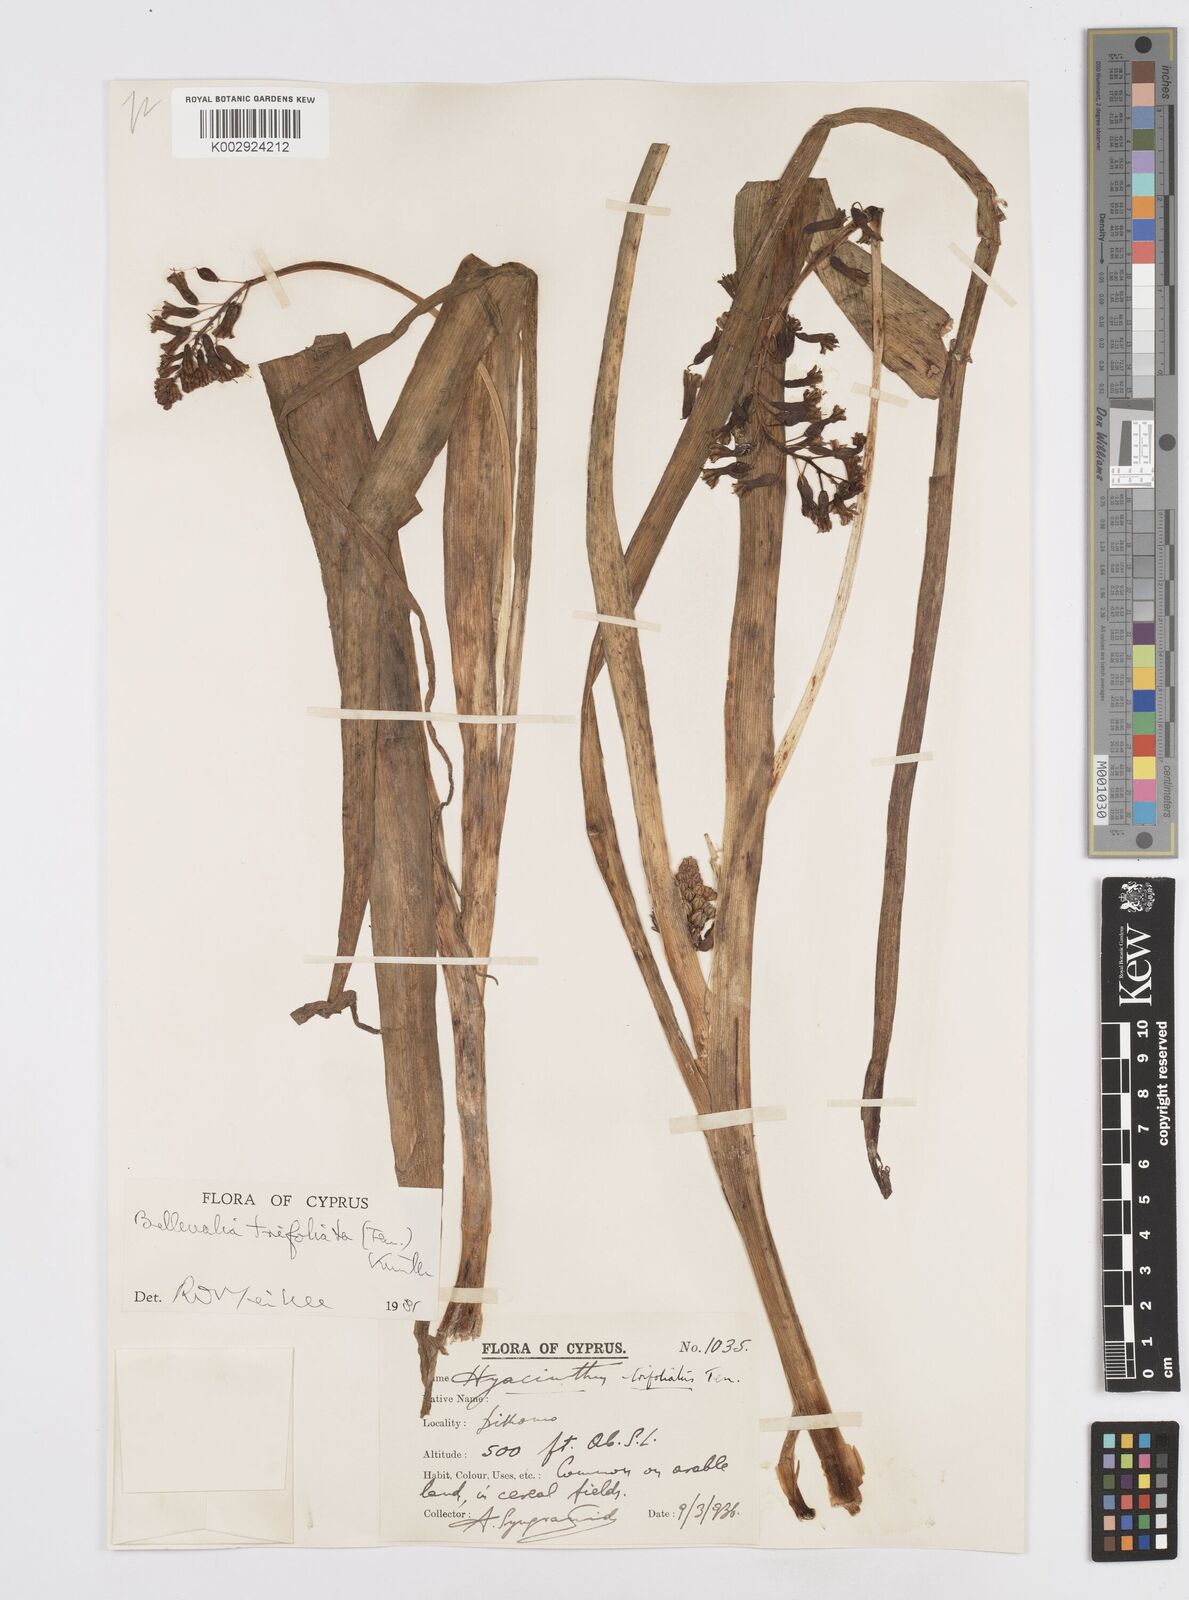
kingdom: Plantae
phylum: Tracheophyta
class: Liliopsida
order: Asparagales
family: Asparagaceae
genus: Bellevalia
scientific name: Bellevalia trifoliata
